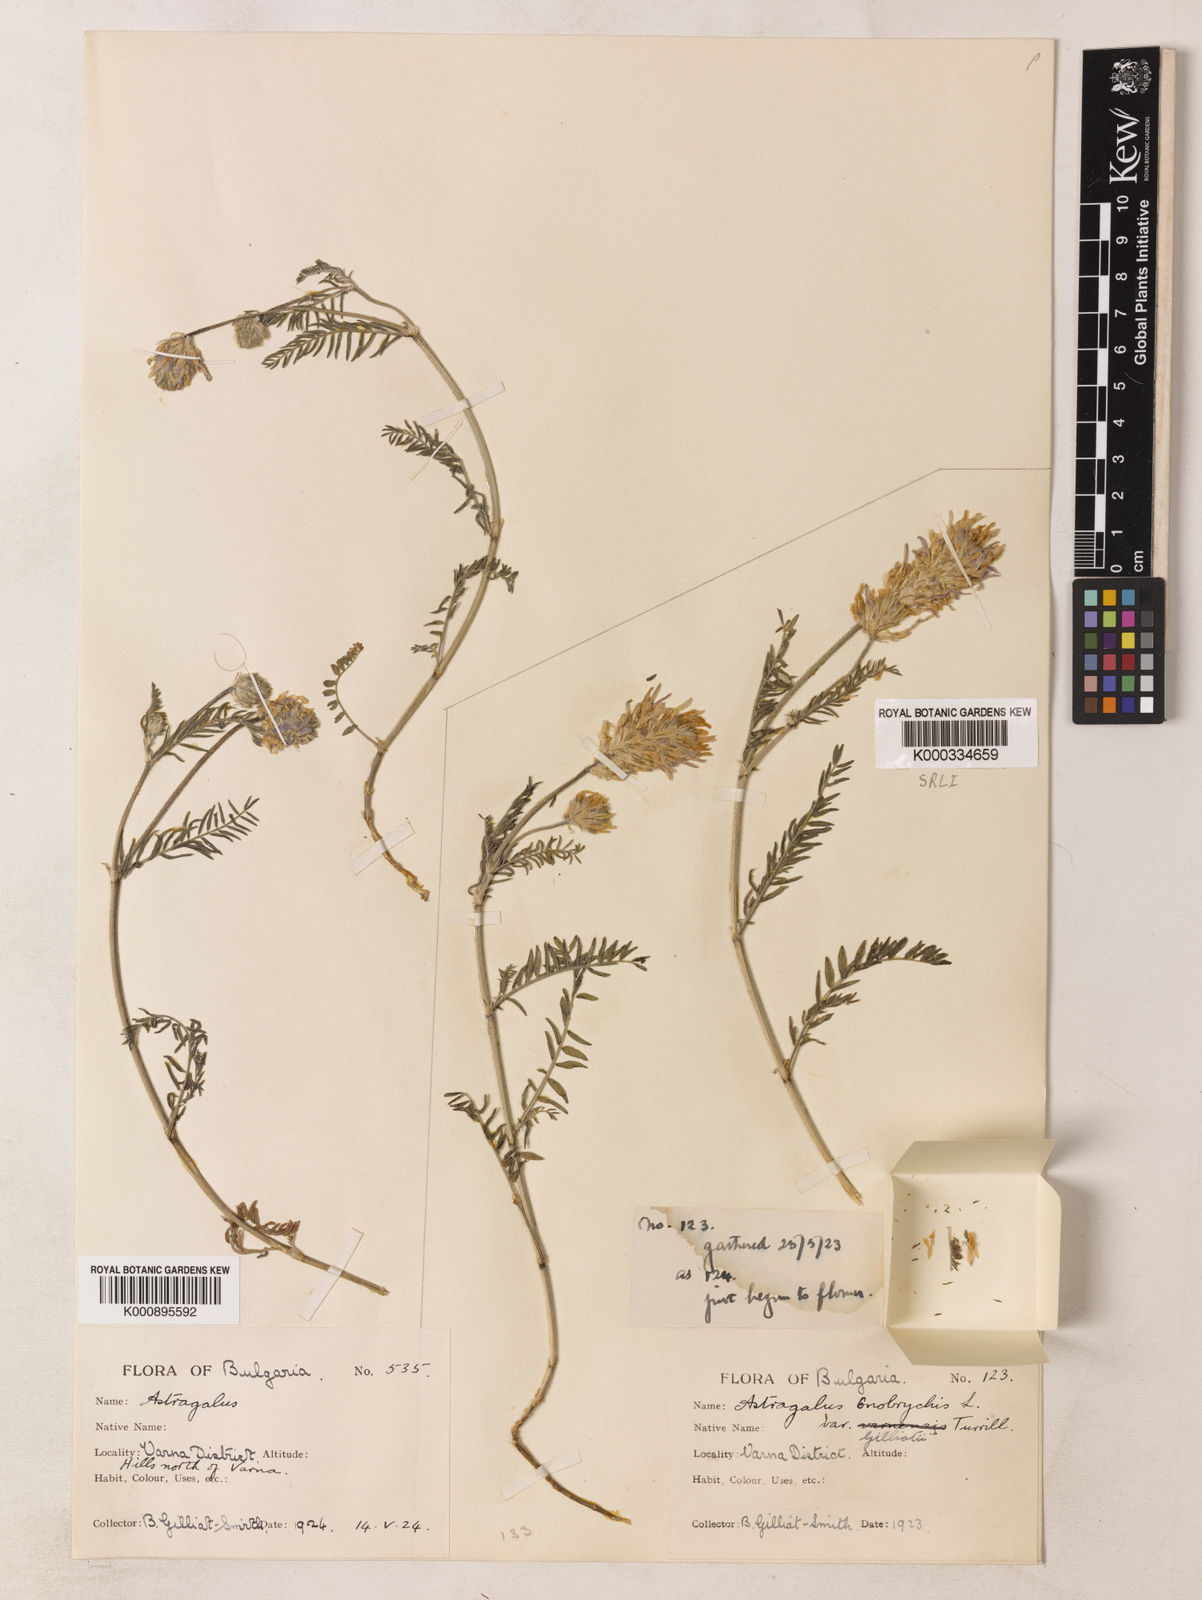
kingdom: Plantae
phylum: Tracheophyta
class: Magnoliopsida
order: Fabales
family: Fabaceae
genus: Astragalus
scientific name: Astragalus
